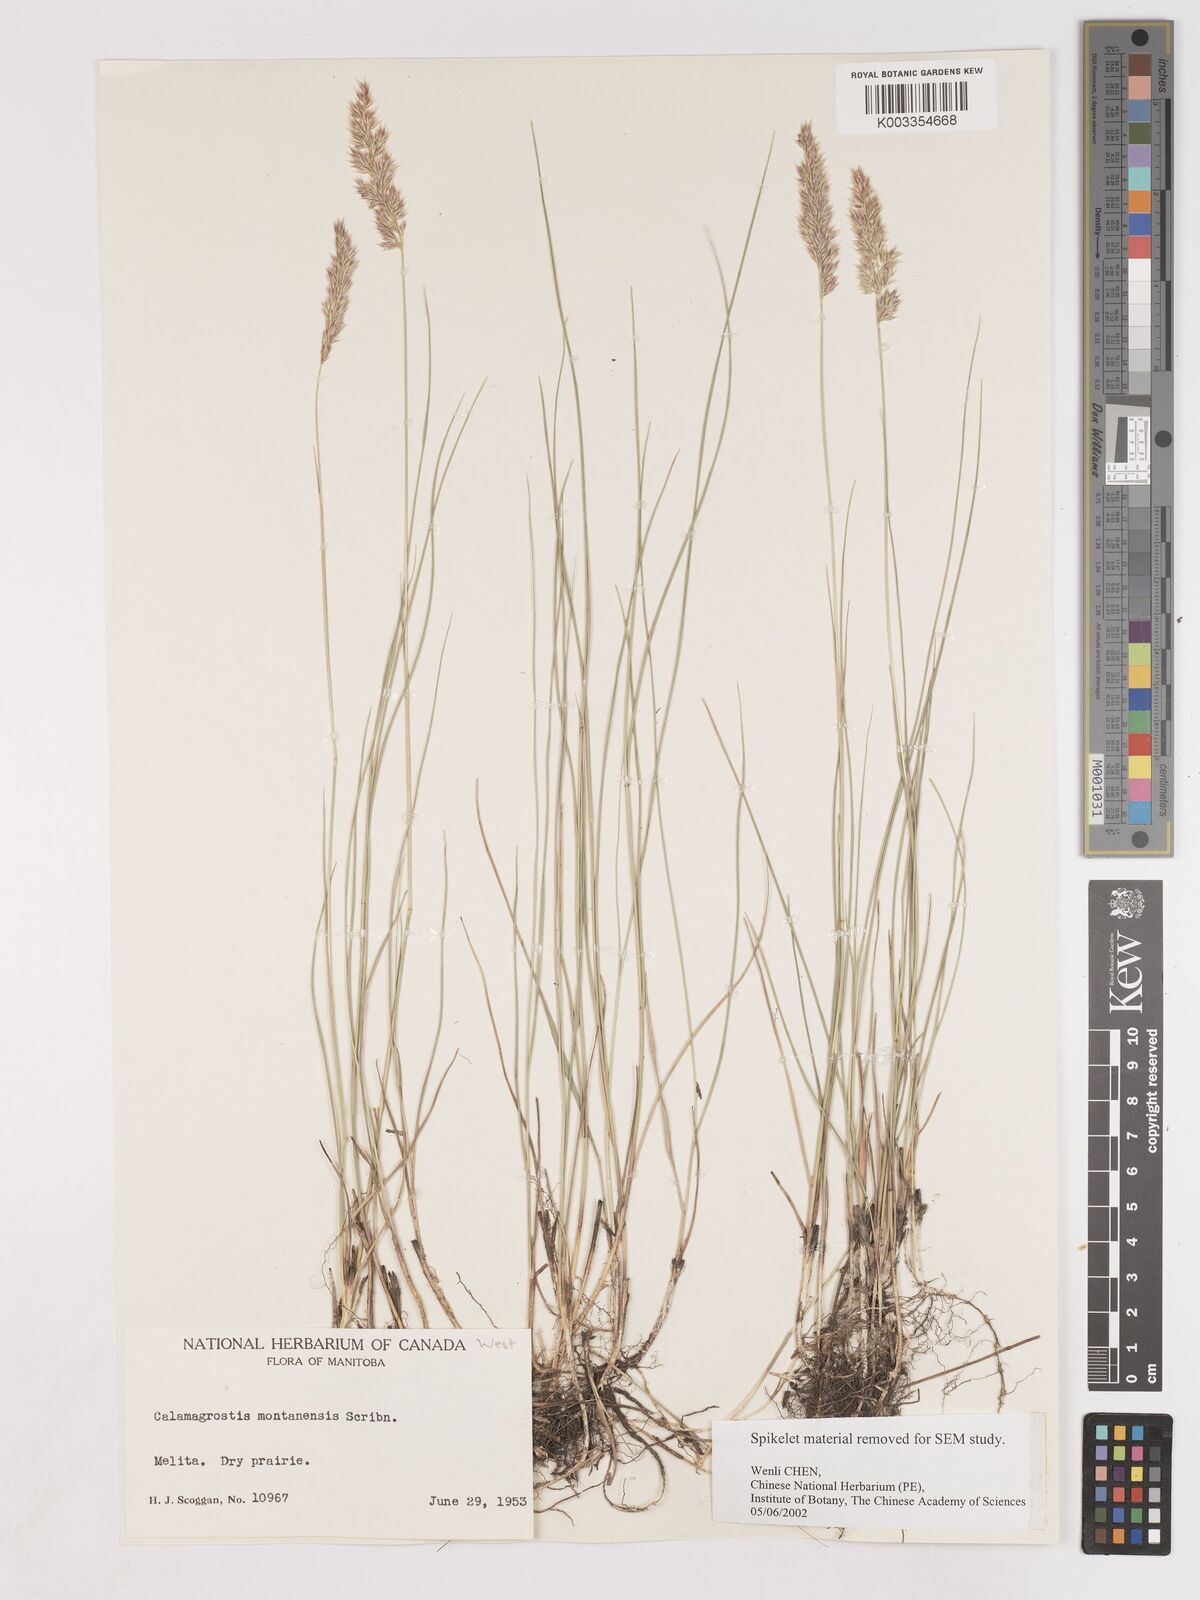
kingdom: Plantae
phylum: Tracheophyta
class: Liliopsida
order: Poales
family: Poaceae
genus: Calamagrostis
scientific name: Calamagrostis montanensis
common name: Plains reedgrass
